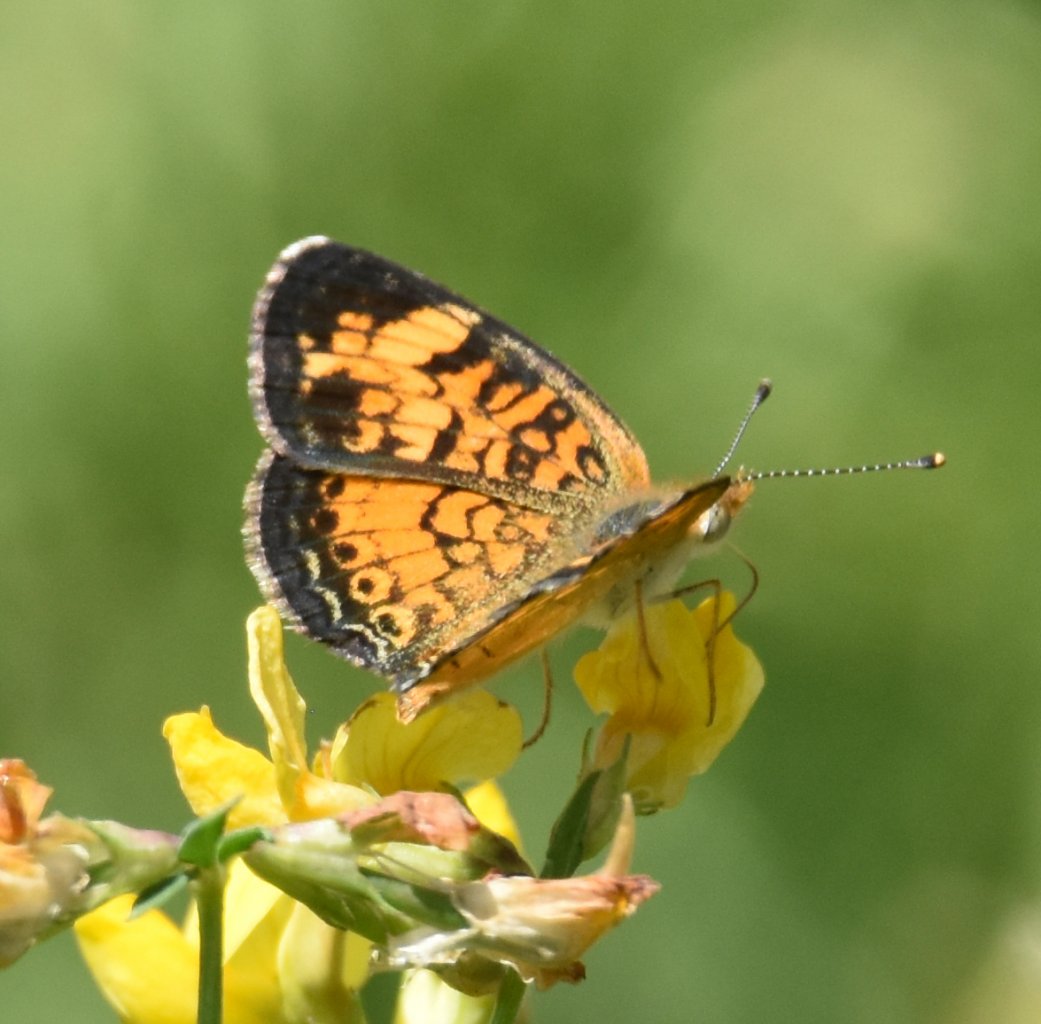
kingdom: Animalia
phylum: Arthropoda
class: Insecta
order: Lepidoptera
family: Nymphalidae
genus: Phyciodes
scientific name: Phyciodes tharos
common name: Northern Crescent
